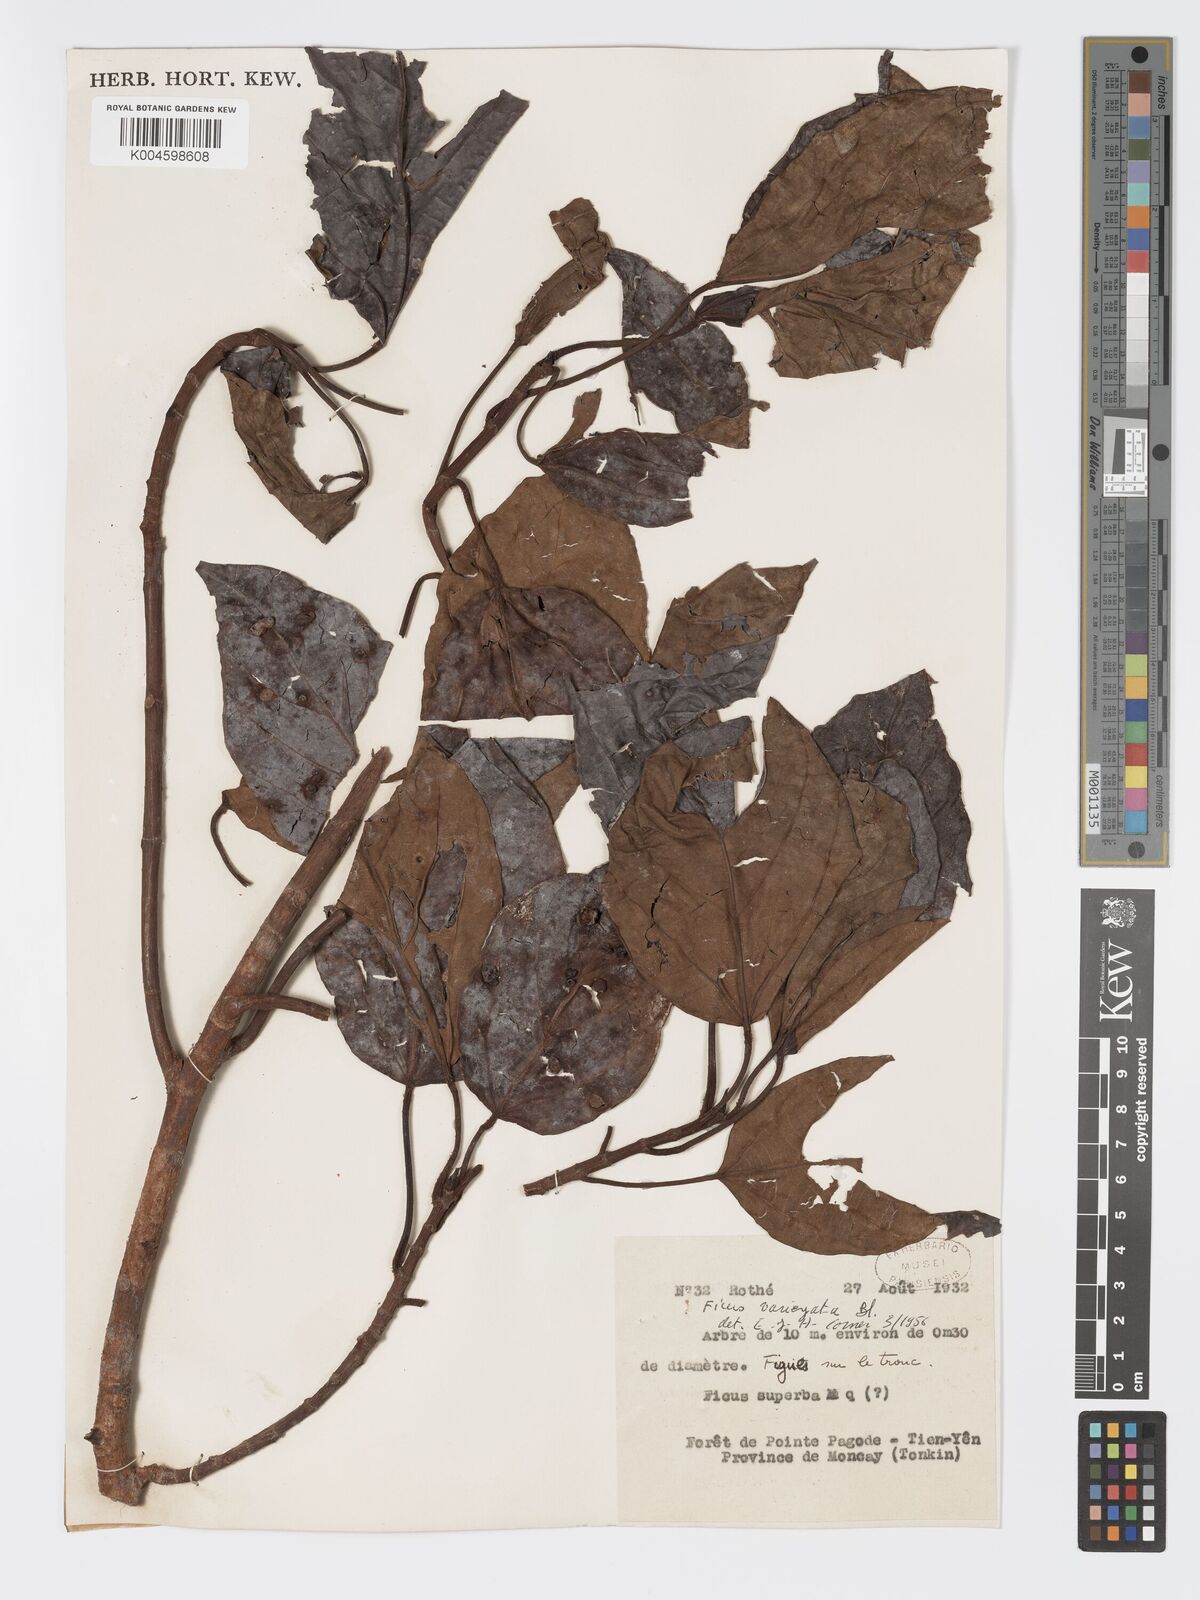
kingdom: Plantae
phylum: Tracheophyta
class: Magnoliopsida
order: Rosales
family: Moraceae
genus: Ficus
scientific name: Ficus variegata
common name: Variegated fig
